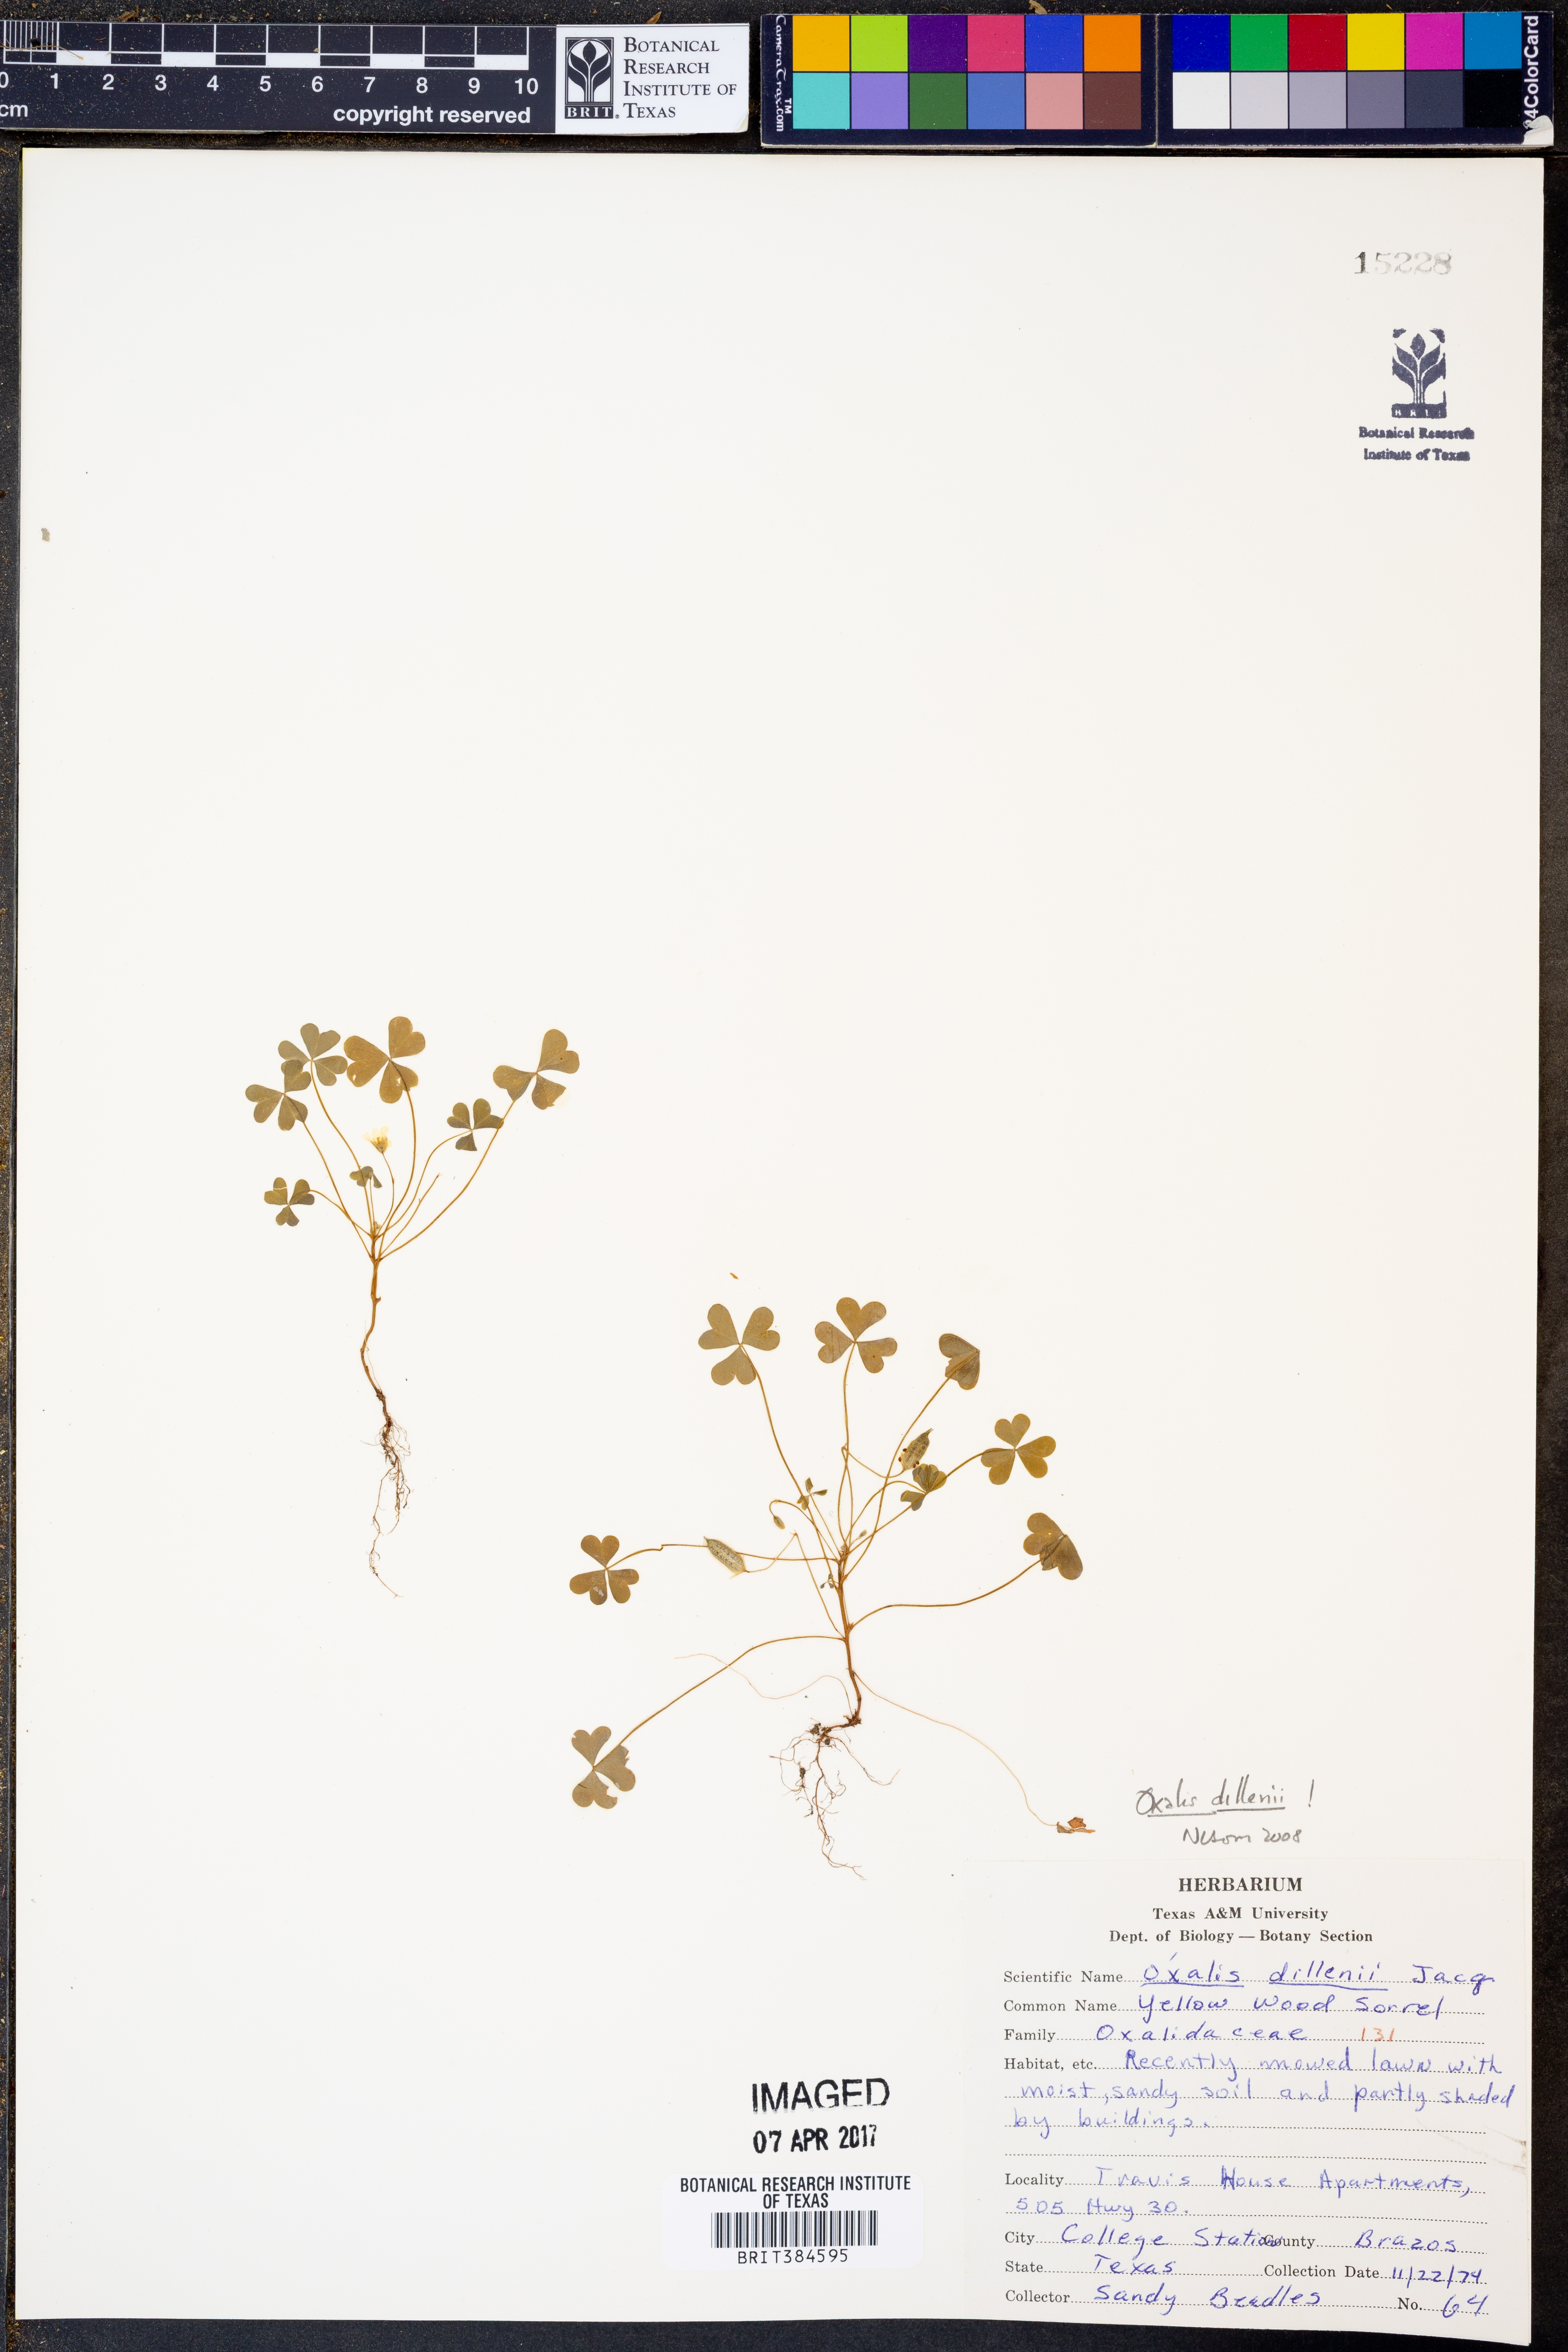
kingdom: Plantae
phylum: Tracheophyta
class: Magnoliopsida
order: Oxalidales
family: Oxalidaceae
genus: Oxalis
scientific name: Oxalis dillenii
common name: Sussex yellow-sorrel
